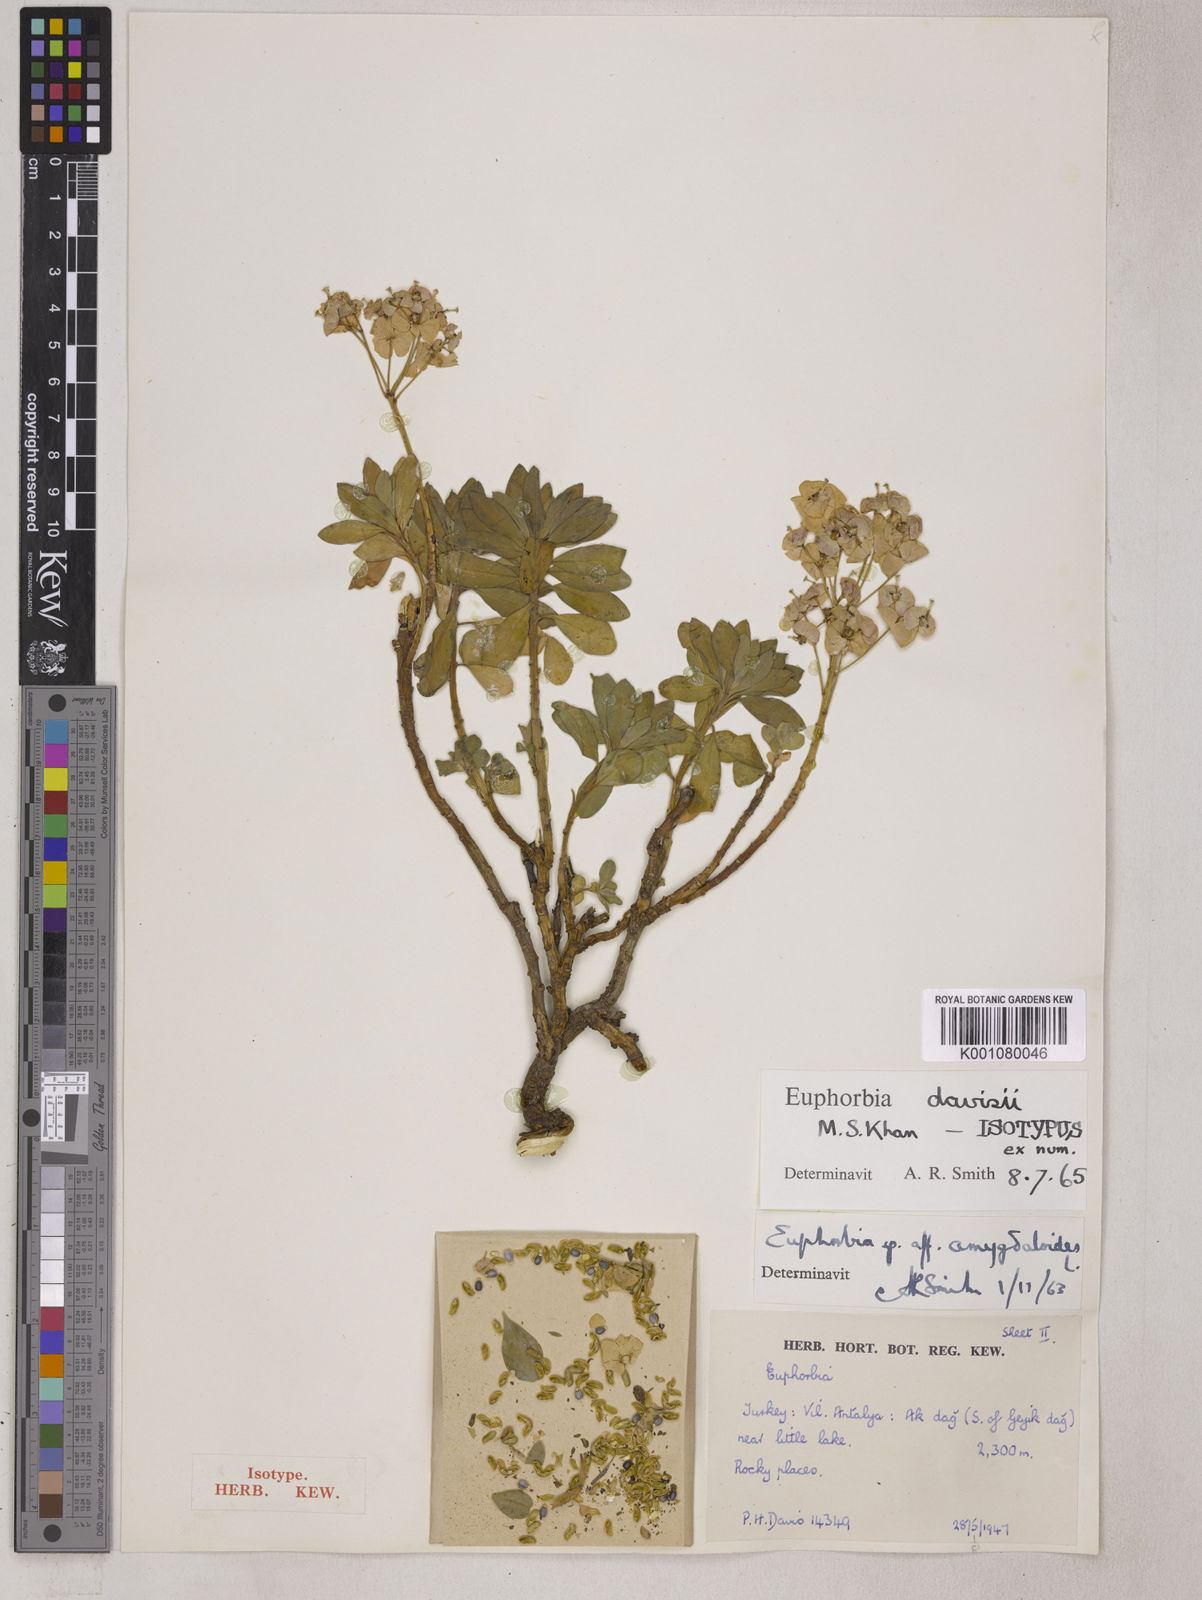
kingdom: Plantae
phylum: Tracheophyta
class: Magnoliopsida
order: Malpighiales
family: Euphorbiaceae
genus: Euphorbia
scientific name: Euphorbia davisii
